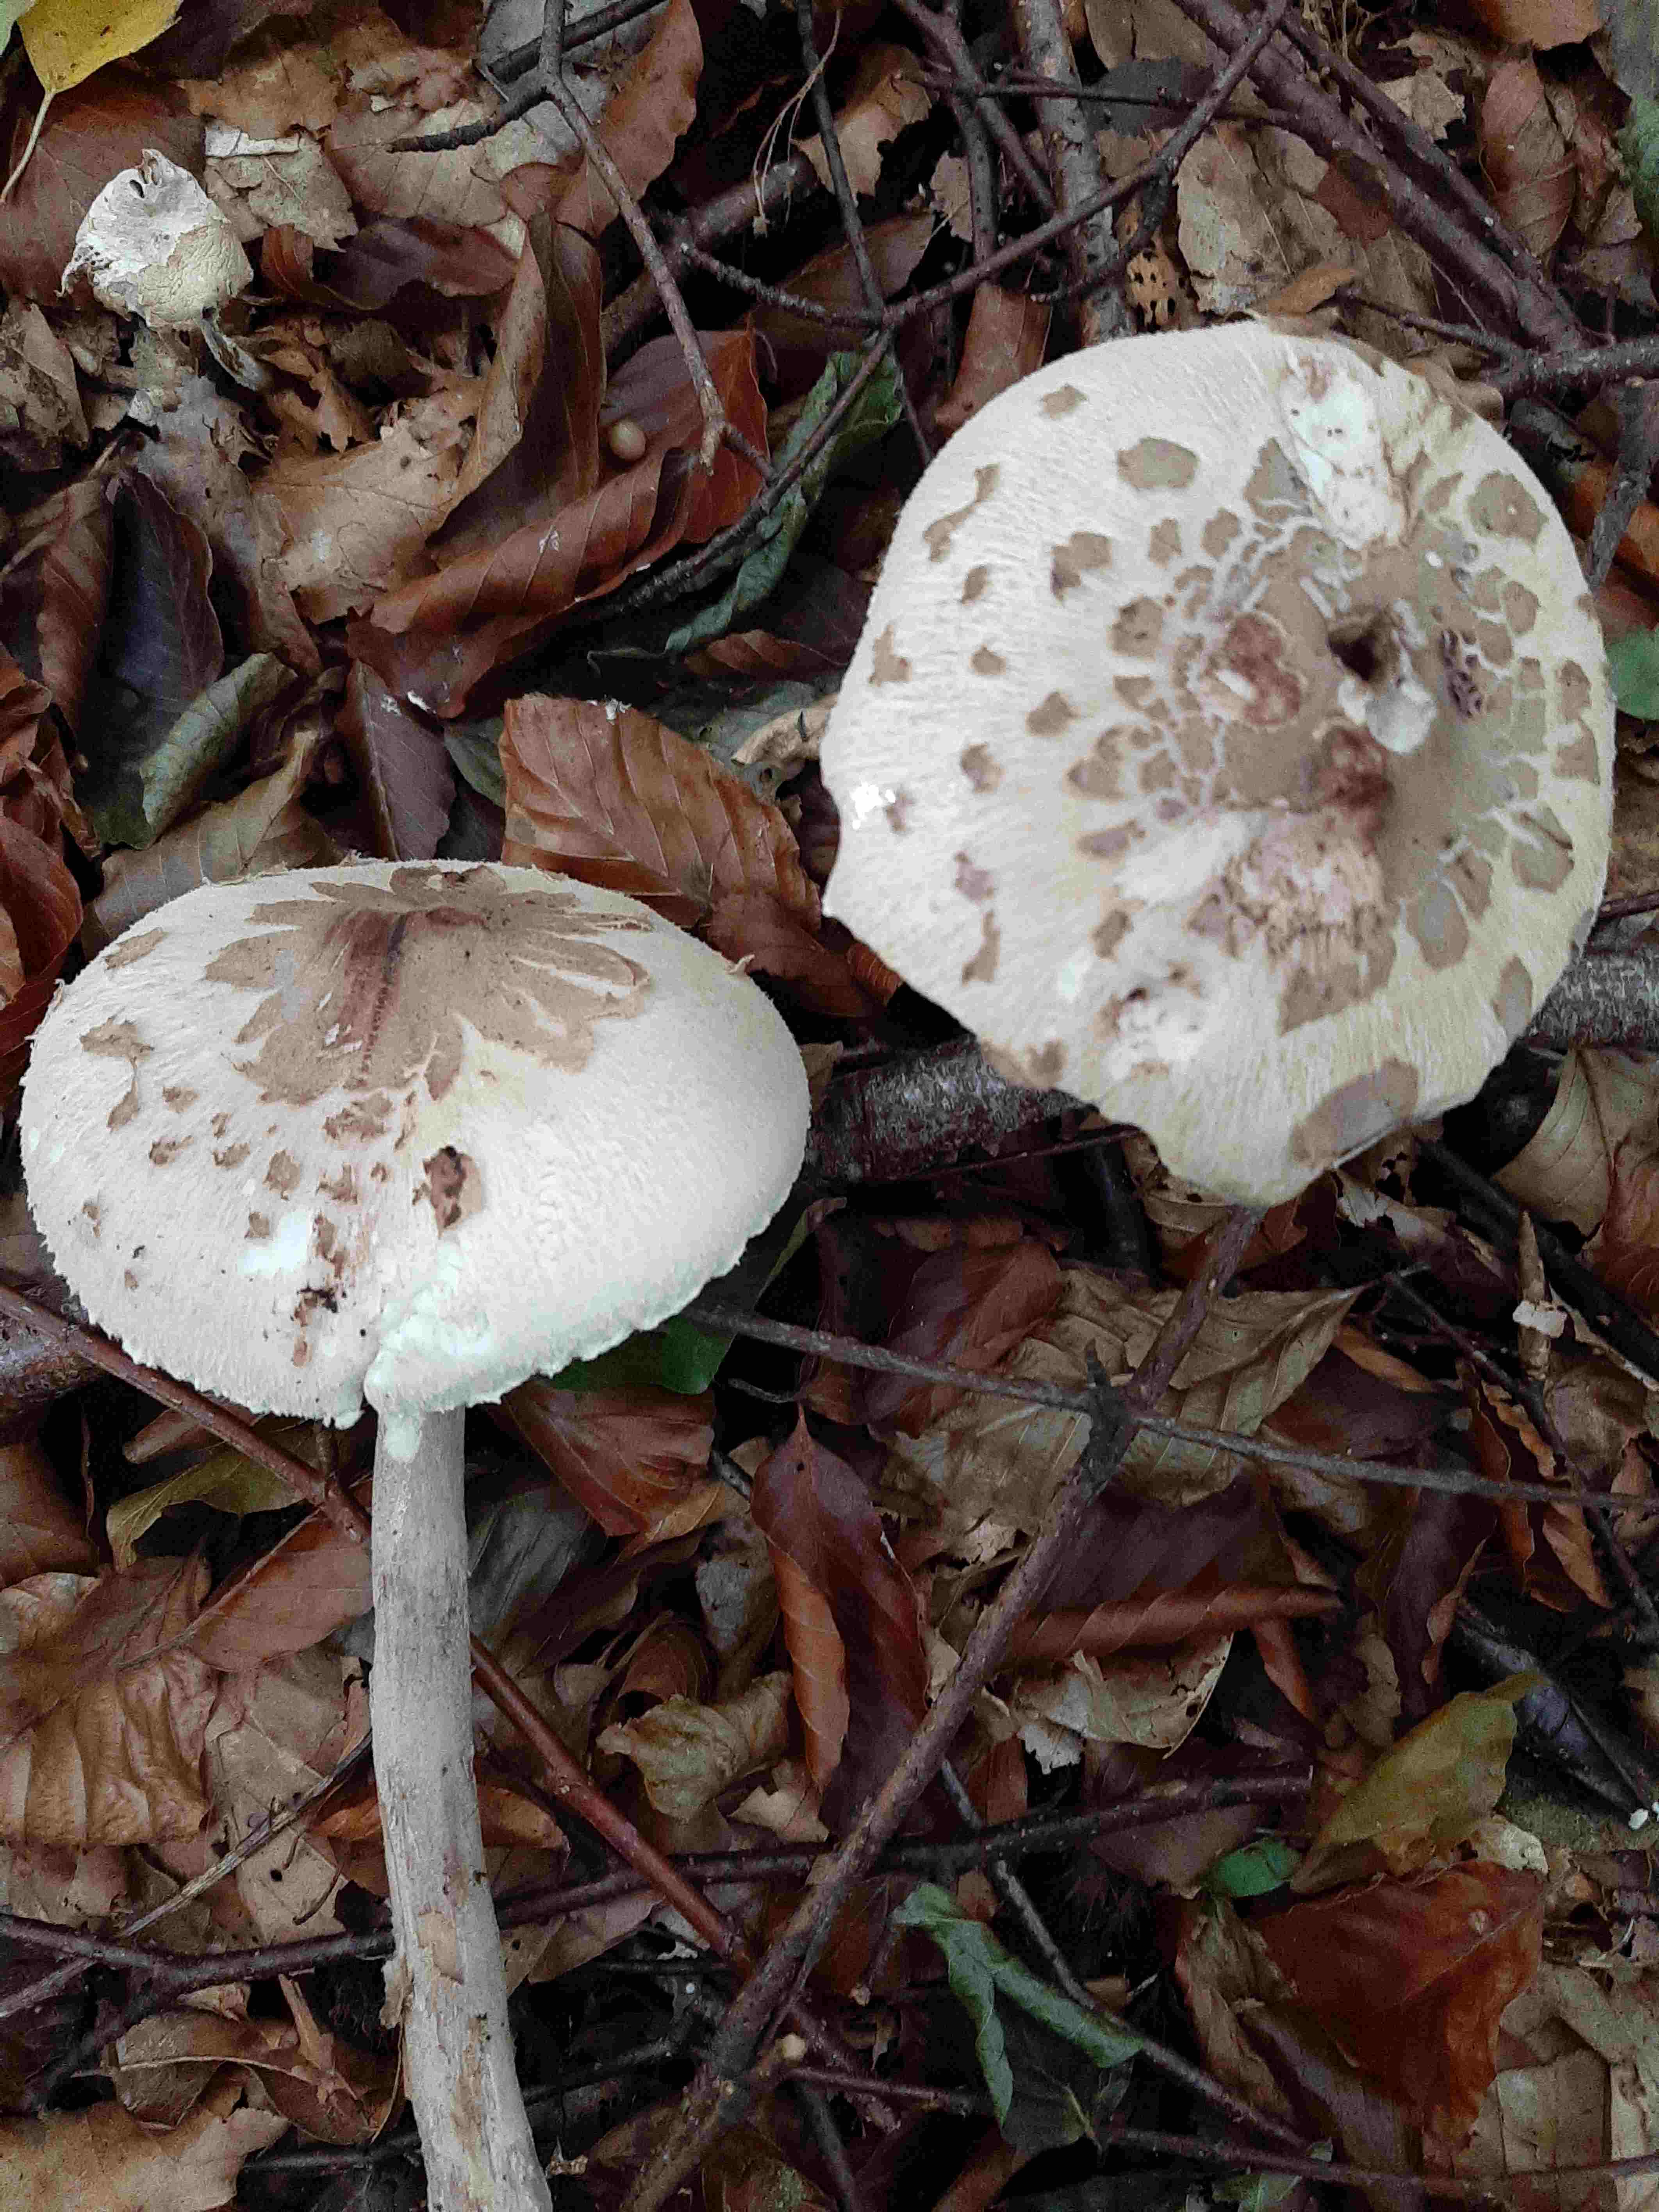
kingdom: Fungi
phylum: Basidiomycota
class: Agaricomycetes
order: Agaricales
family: Agaricaceae
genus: Macrolepiota
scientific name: Macrolepiota procera
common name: stor kæmpeparasolhat
